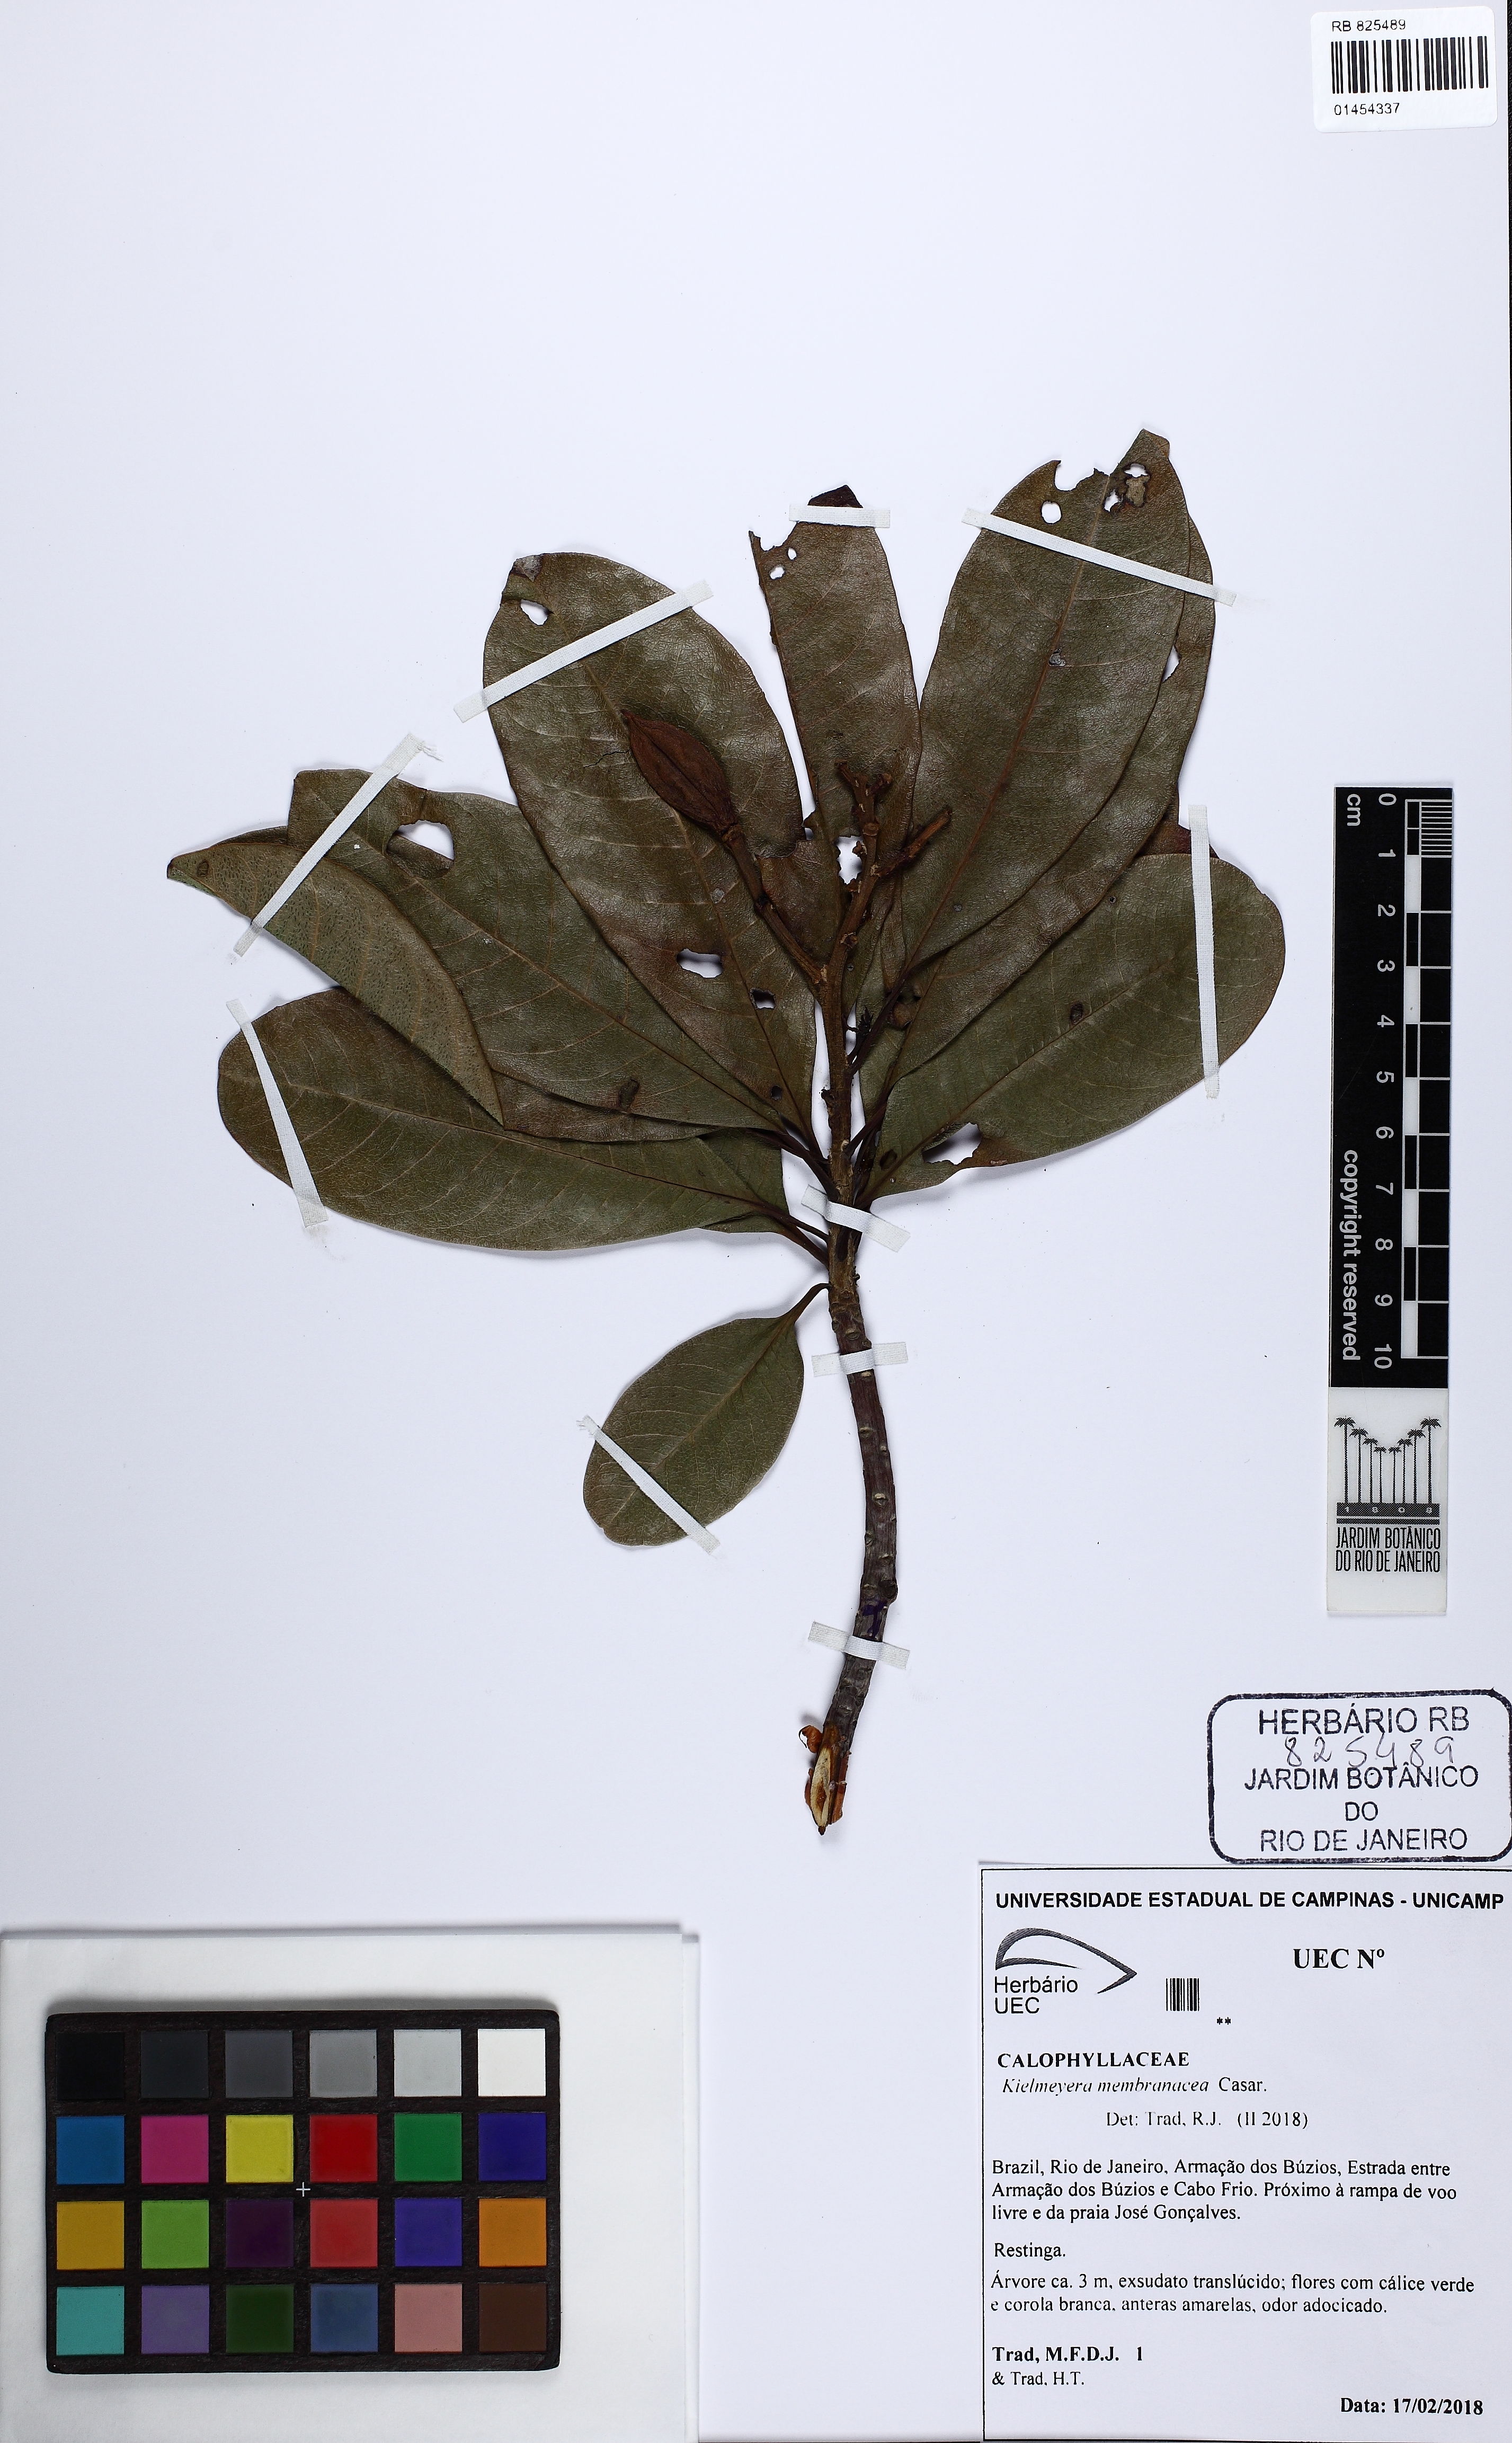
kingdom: Plantae
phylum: Tracheophyta
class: Magnoliopsida
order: Malpighiales
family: Calophyllaceae
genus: Kielmeyera
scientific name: Kielmeyera membranacea
